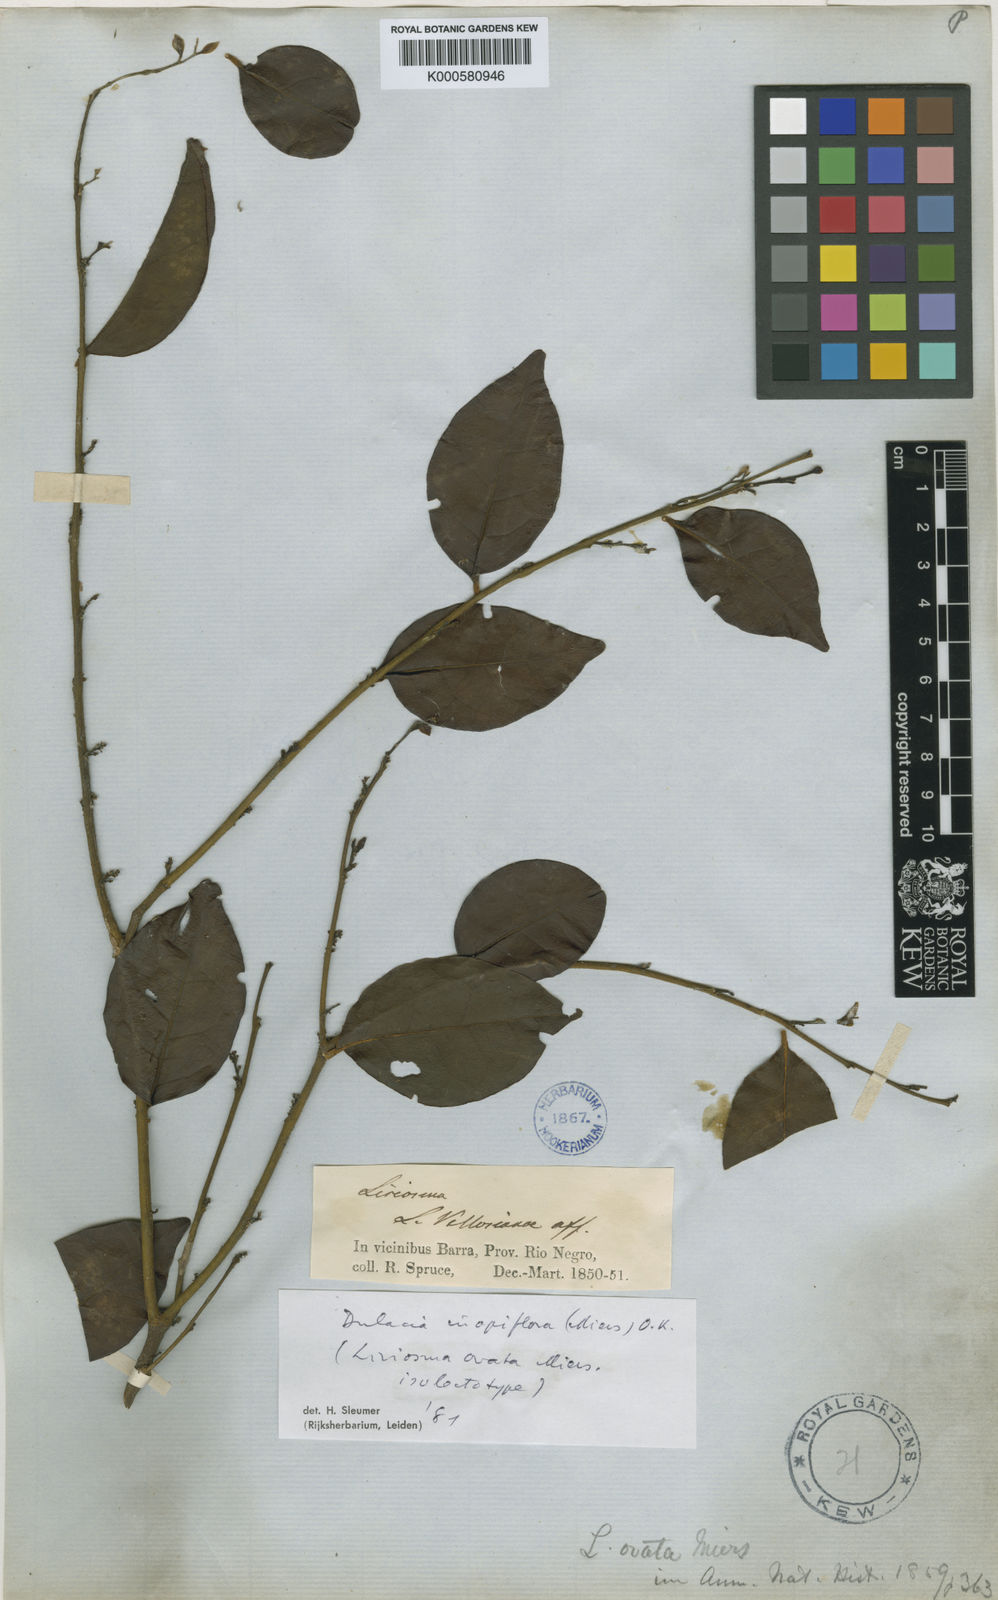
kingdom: Plantae
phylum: Tracheophyta
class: Magnoliopsida
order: Santalales
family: Olacaceae
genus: Dulacia
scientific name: Dulacia inopiflora
